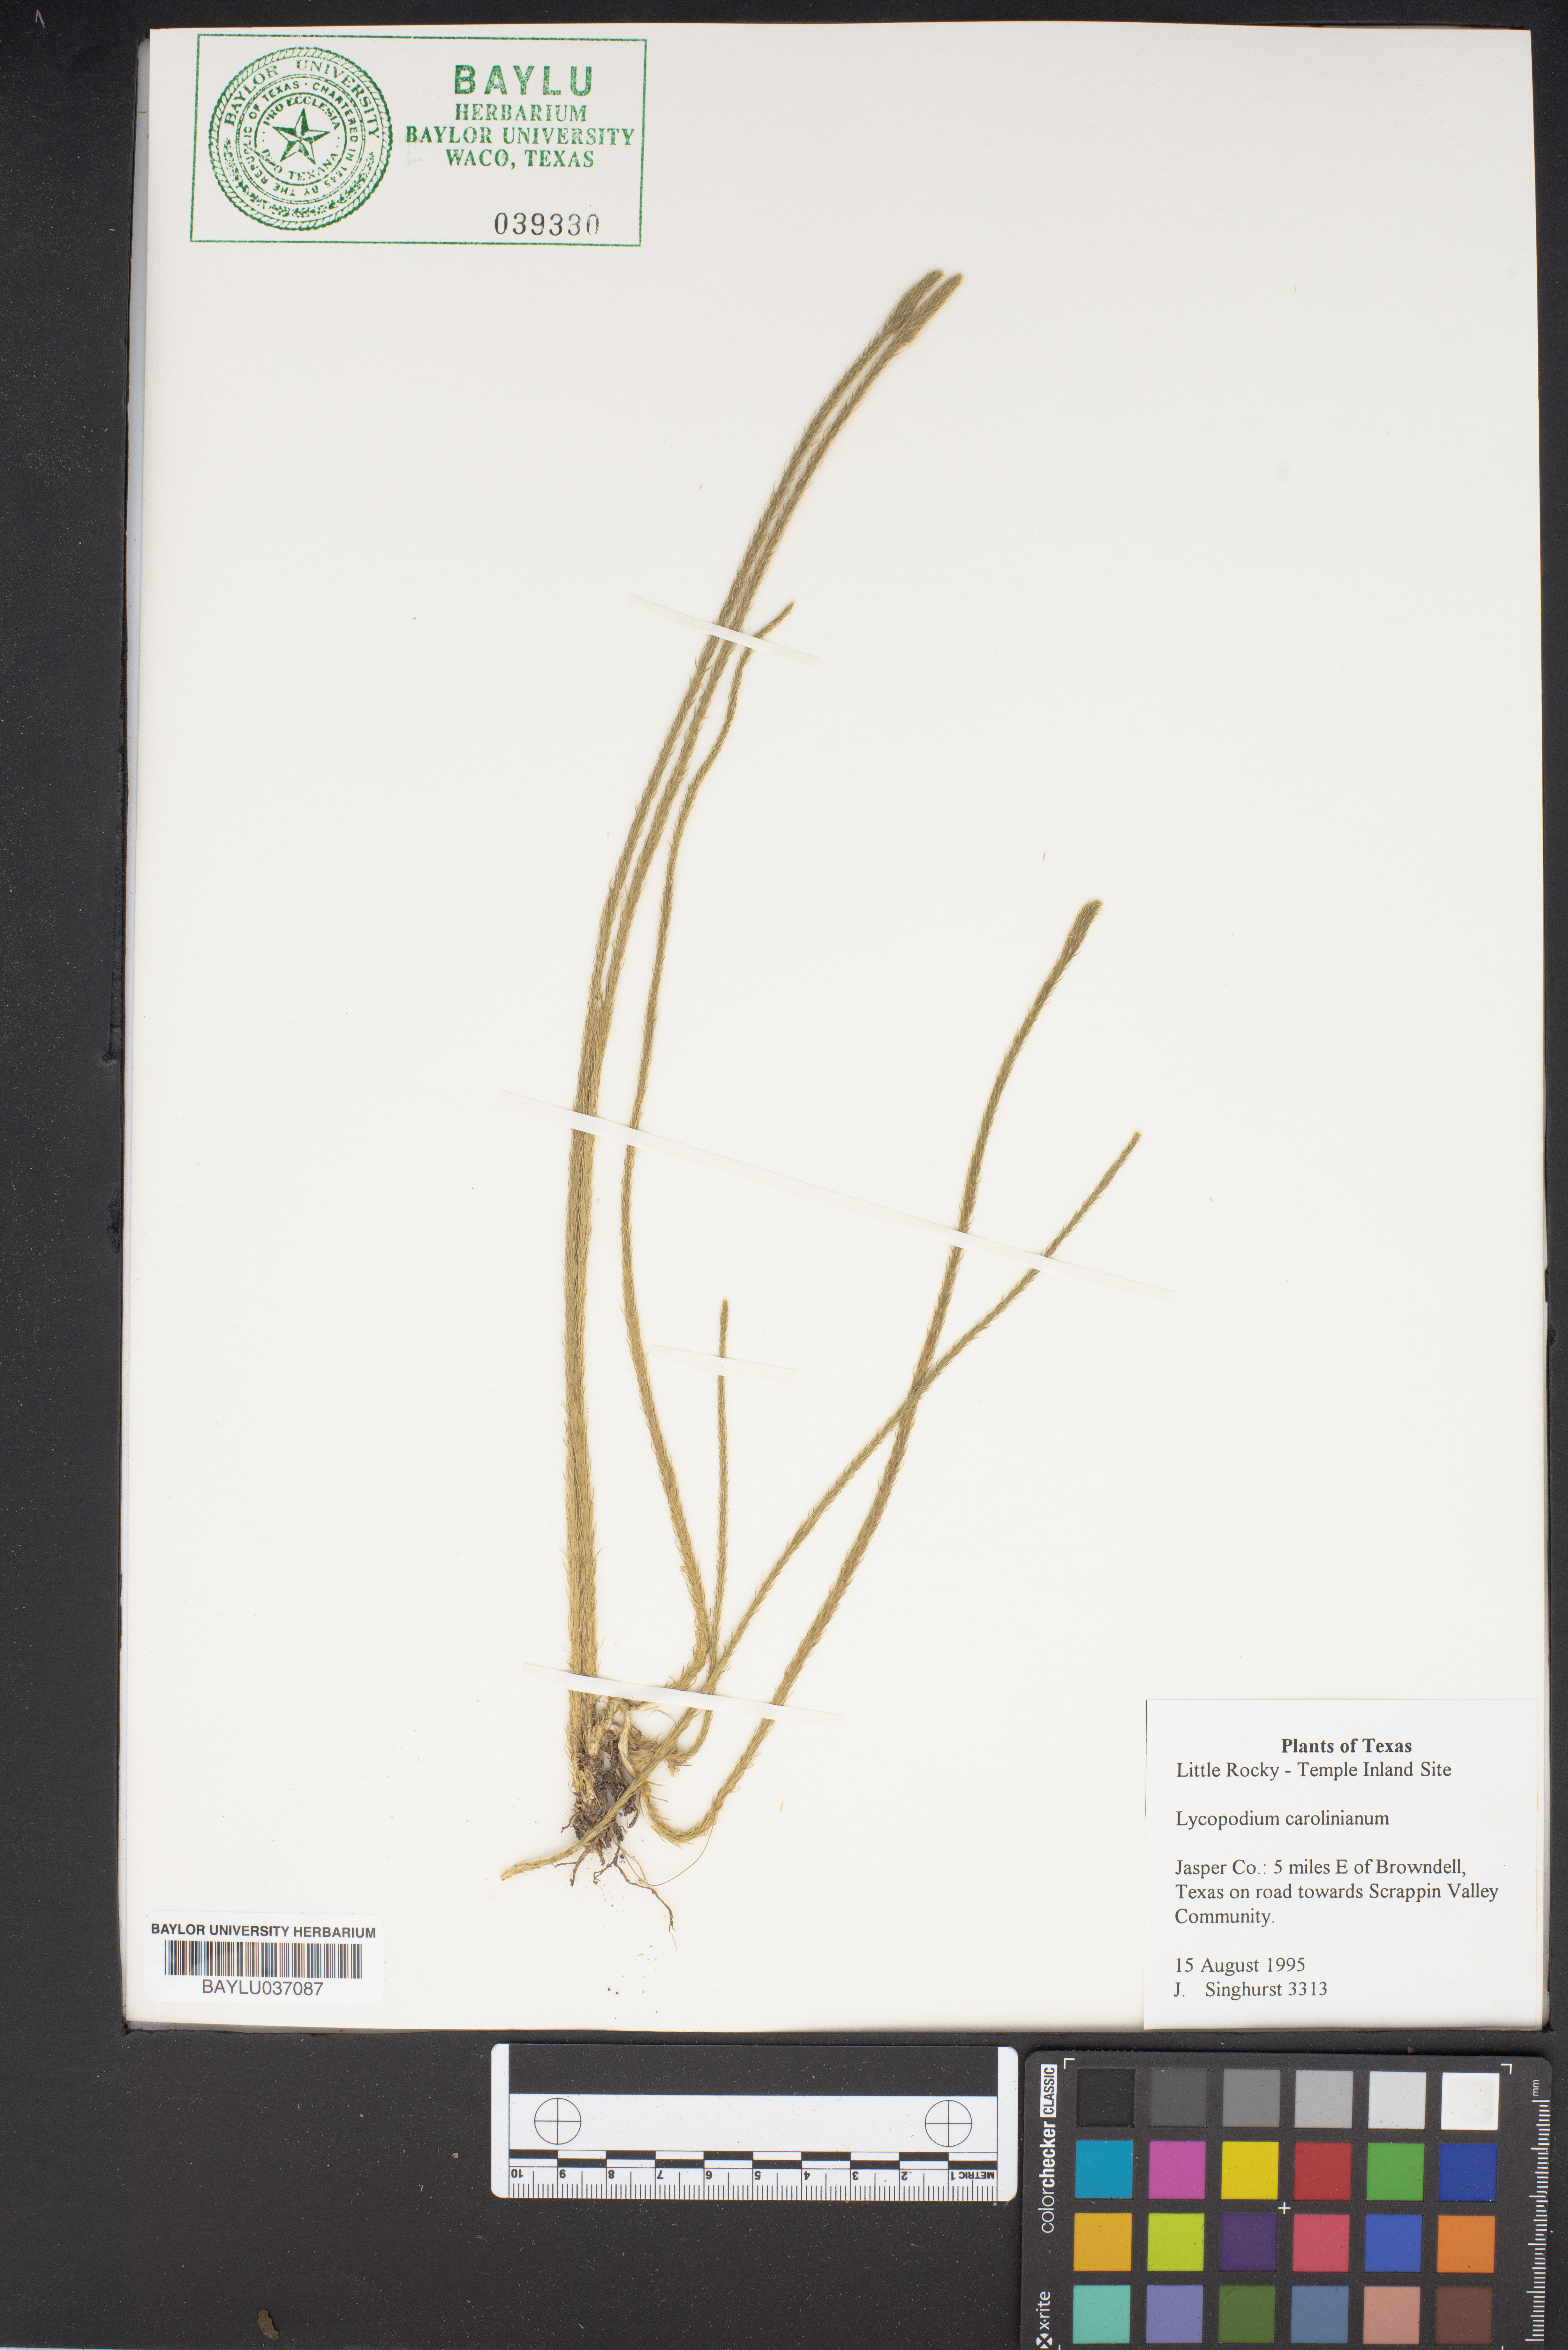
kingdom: Plantae
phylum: Tracheophyta
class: Lycopodiopsida
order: Lycopodiales
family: Lycopodiaceae
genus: Pseudolycopodiella
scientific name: Pseudolycopodiella caroliniana
